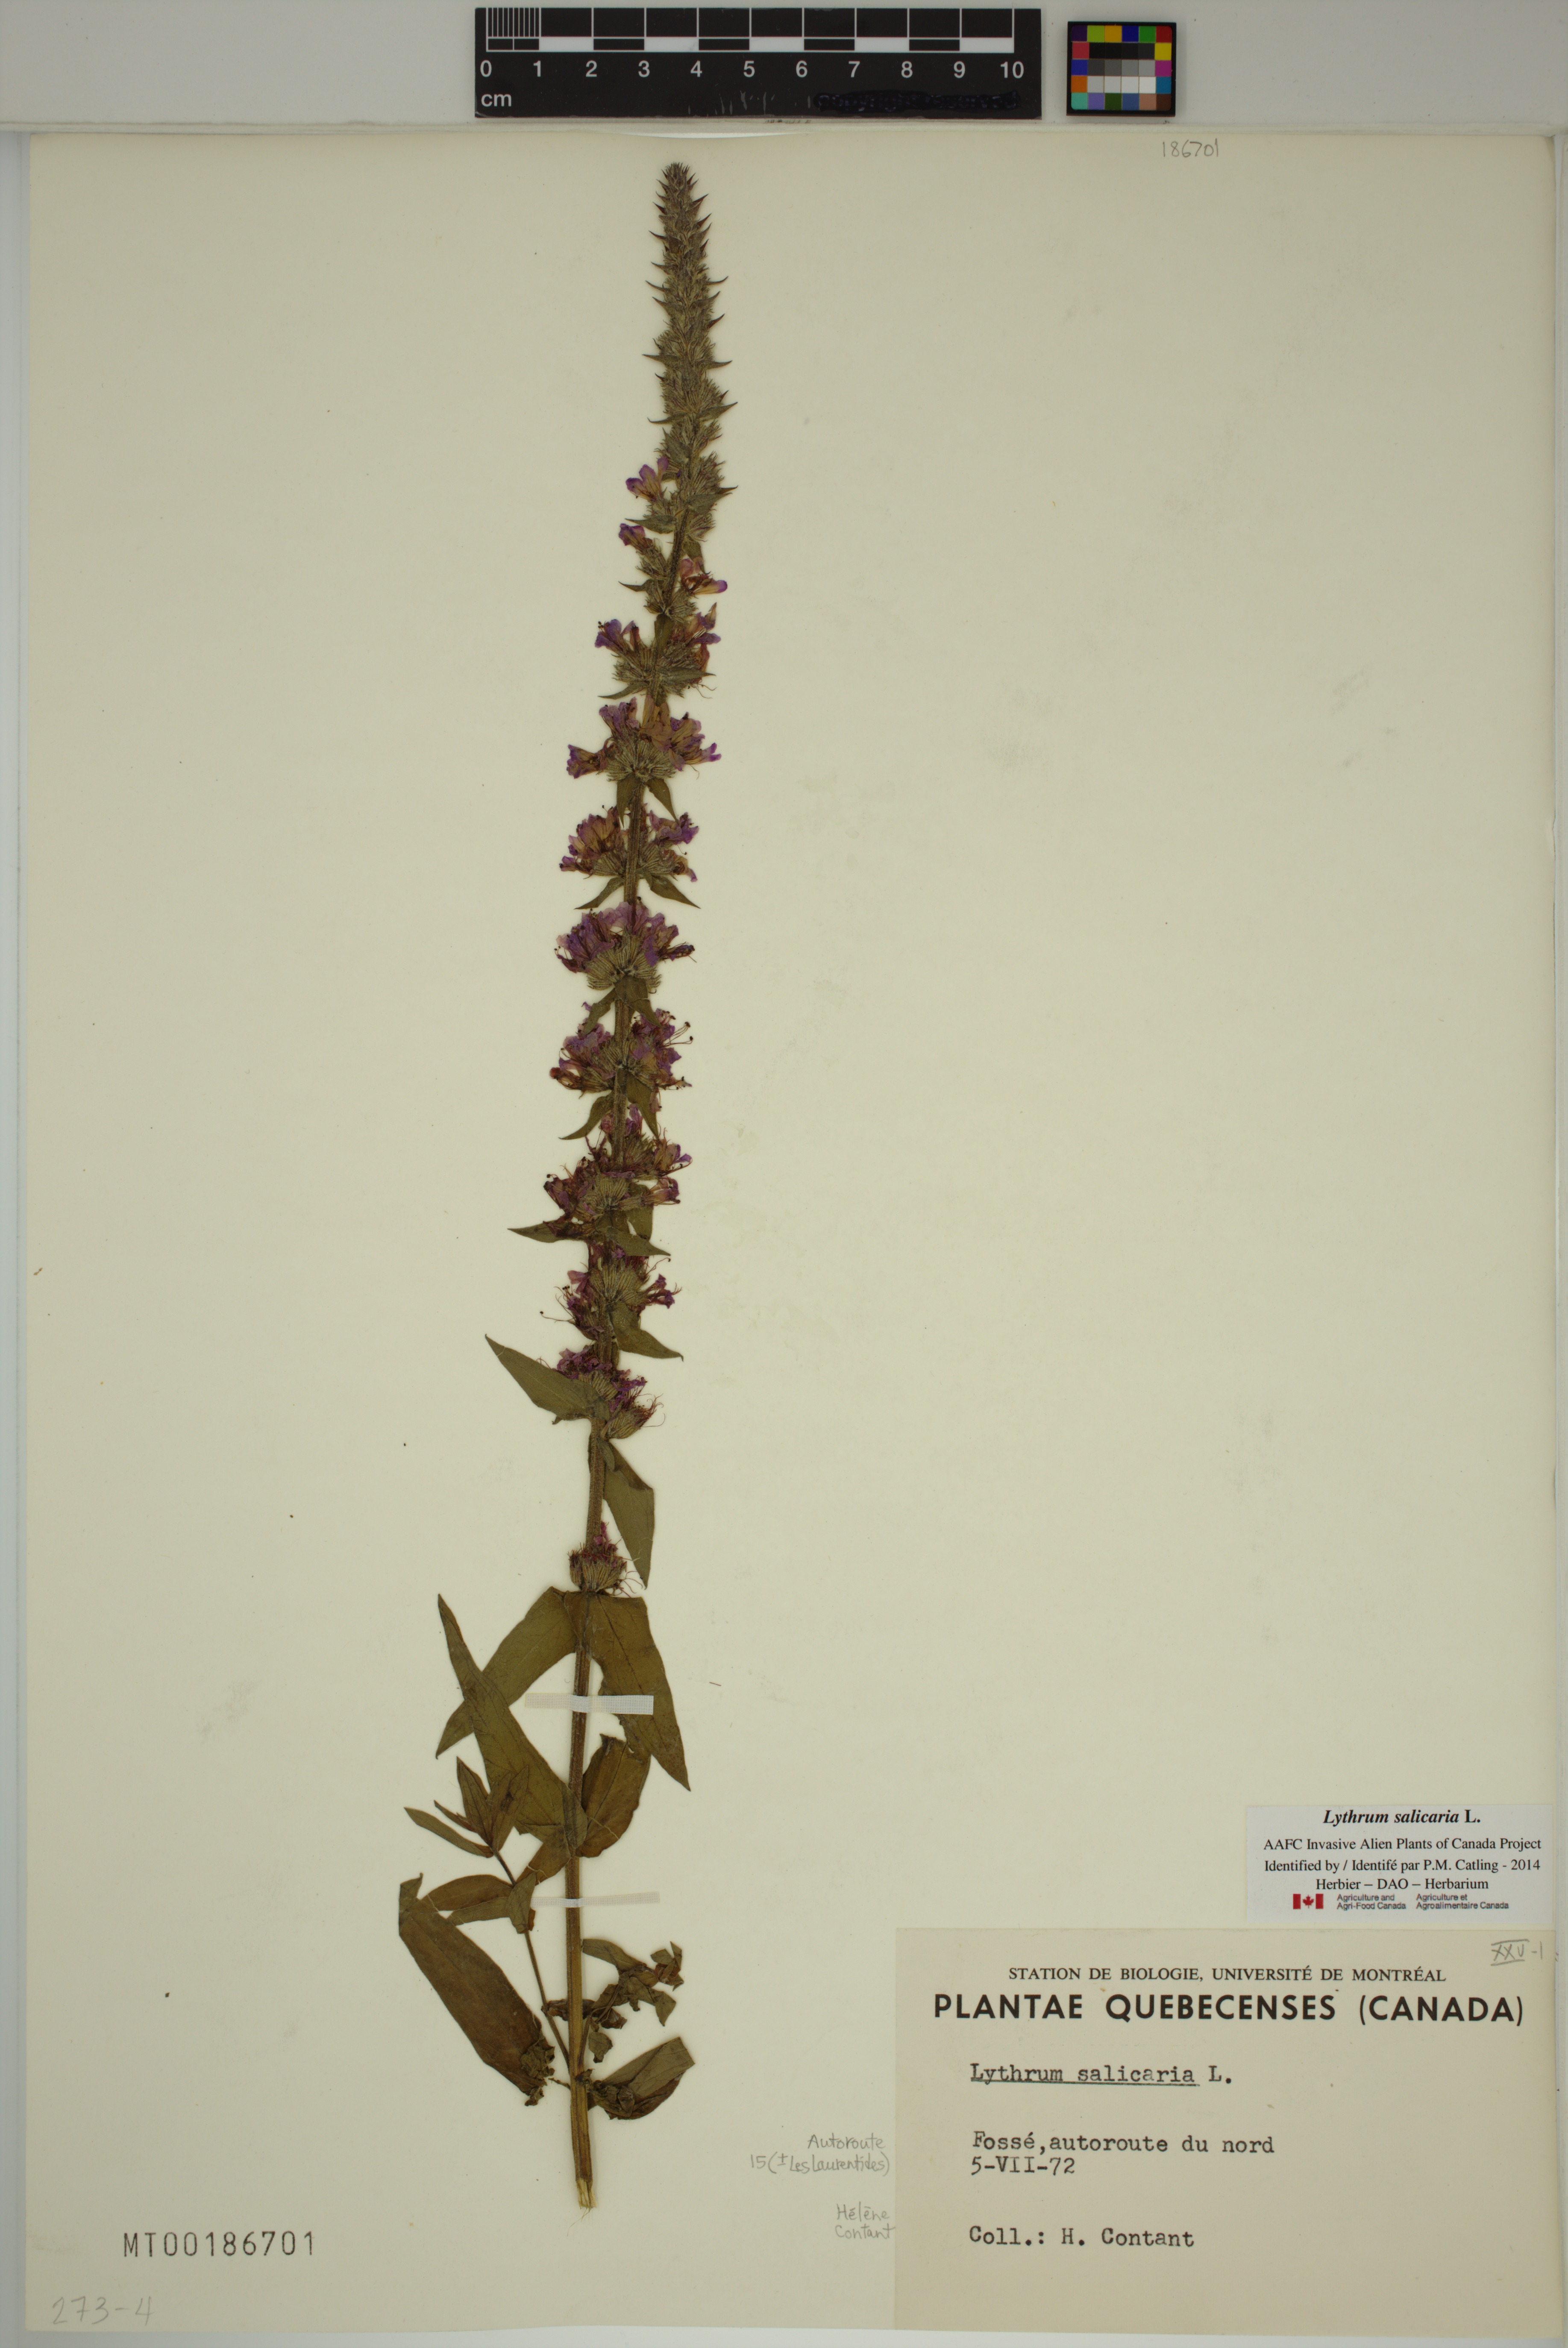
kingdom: Plantae
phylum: Tracheophyta
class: Magnoliopsida
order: Myrtales
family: Lythraceae
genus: Lythrum
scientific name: Lythrum salicaria
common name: Purple loosestrife
